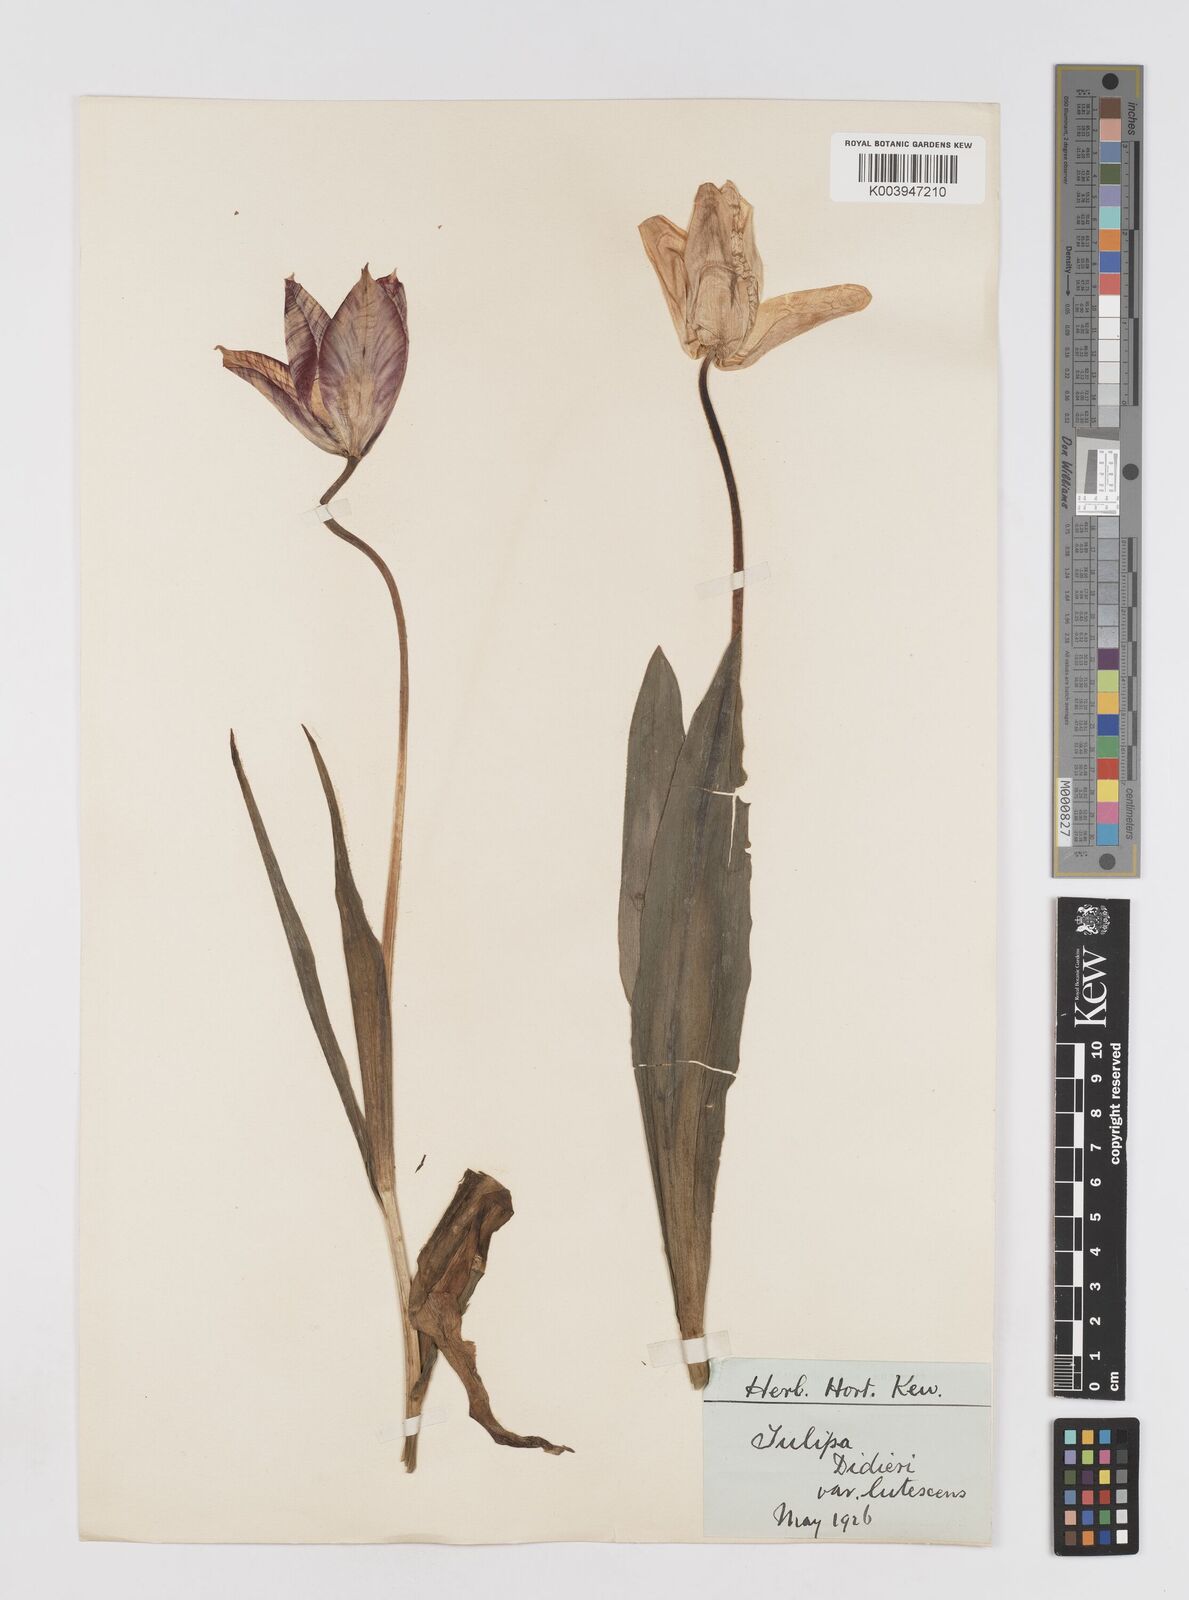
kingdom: Plantae
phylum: Tracheophyta
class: Liliopsida
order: Liliales
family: Liliaceae
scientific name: Liliaceae
